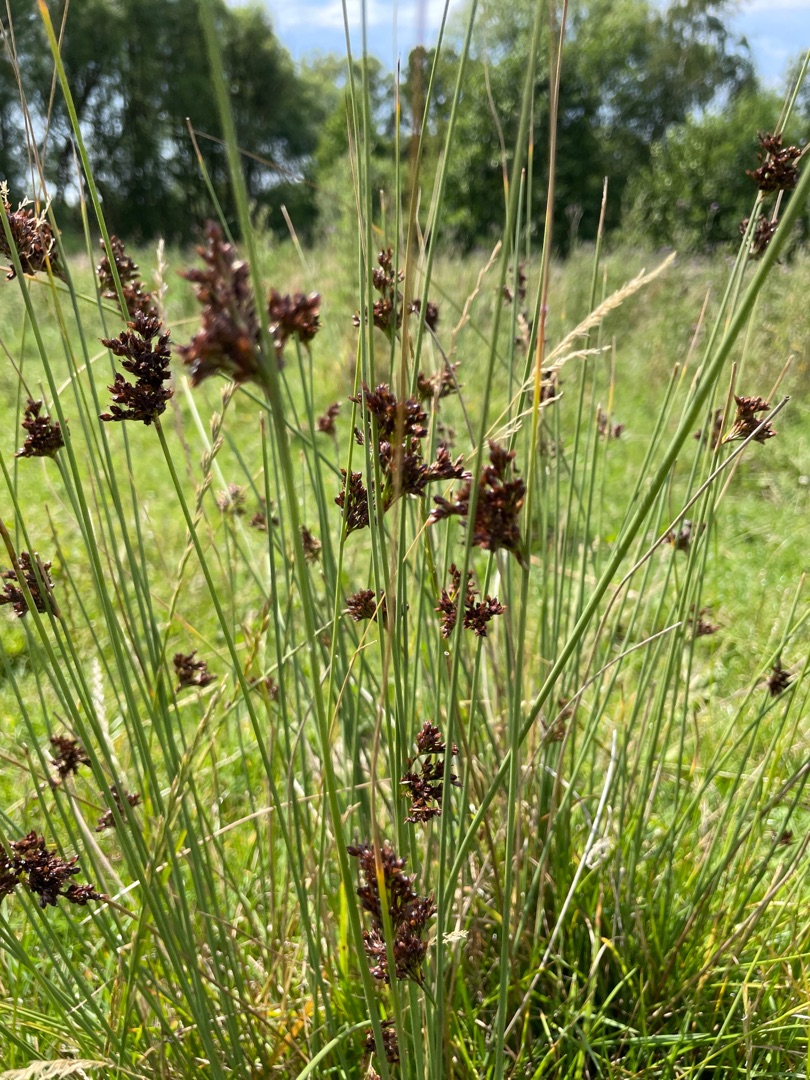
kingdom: Plantae
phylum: Tracheophyta
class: Liliopsida
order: Poales
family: Juncaceae
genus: Juncus
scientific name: Juncus inflexus
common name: Blågrå siv
